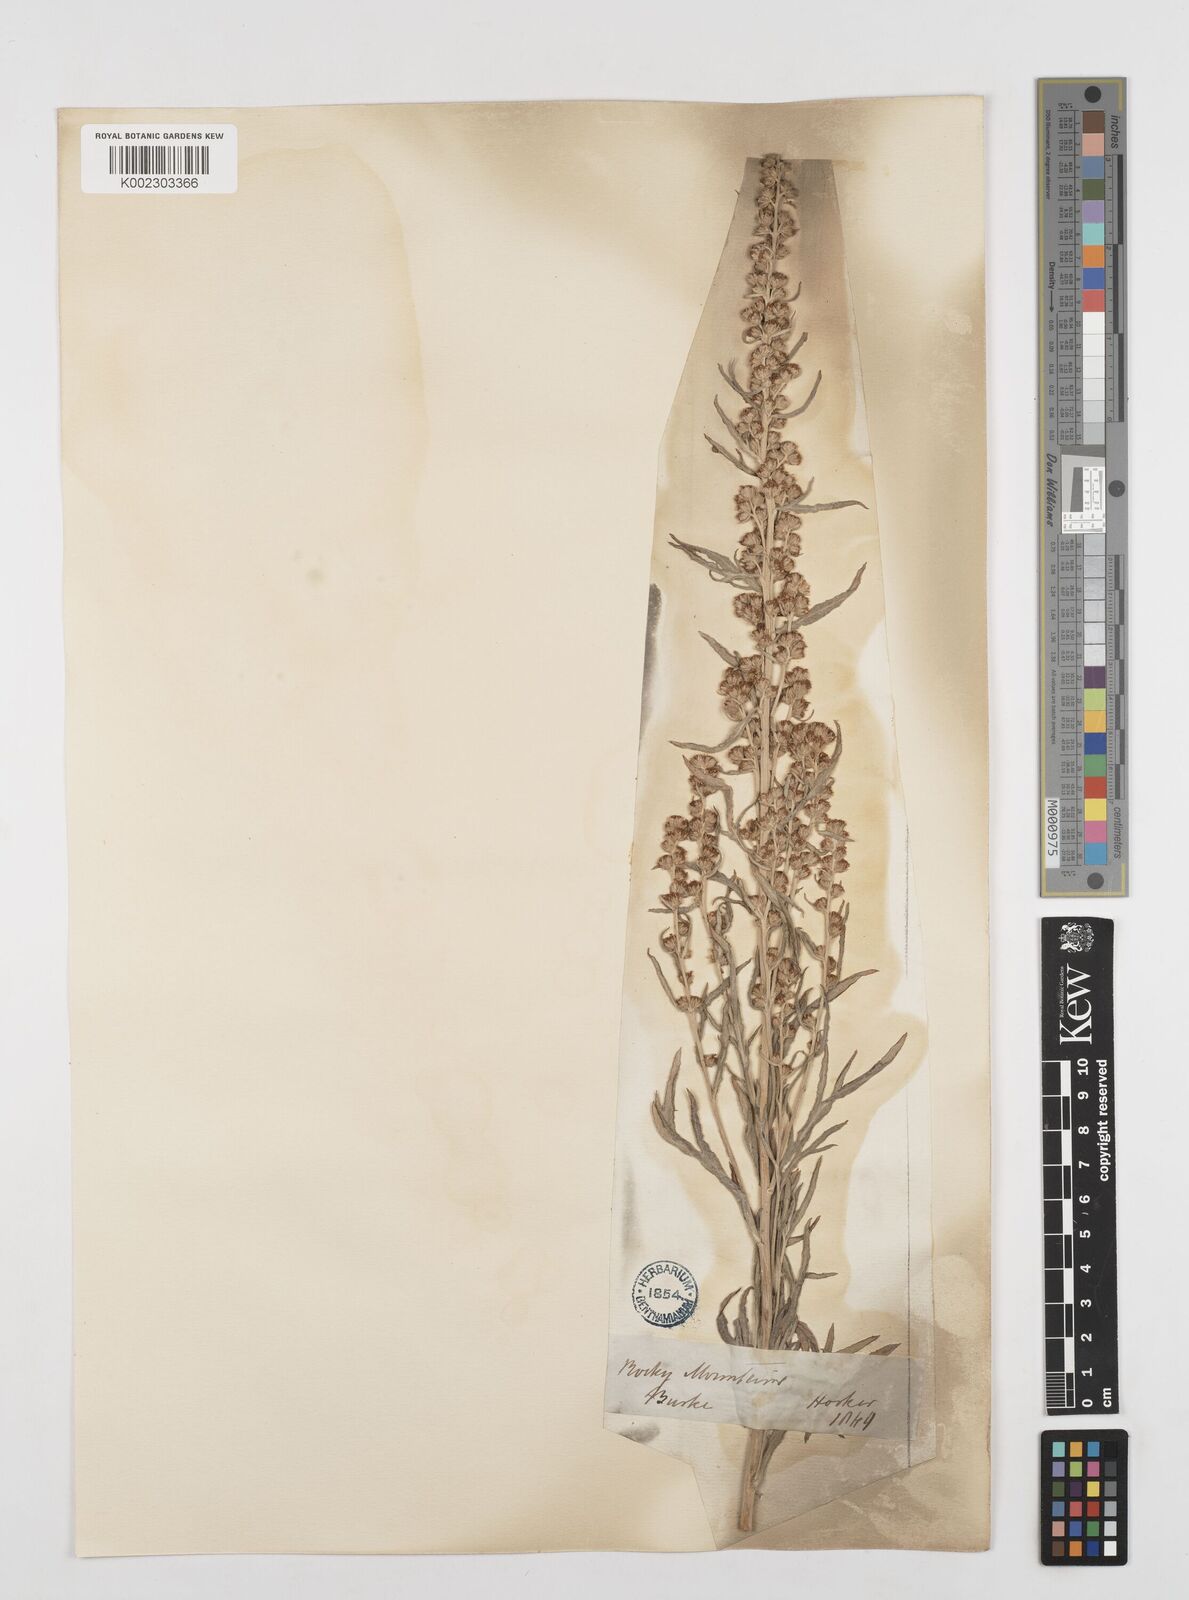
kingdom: Plantae
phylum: Tracheophyta
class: Magnoliopsida
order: Asterales
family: Asteraceae
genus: Artemisia
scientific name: Artemisia
